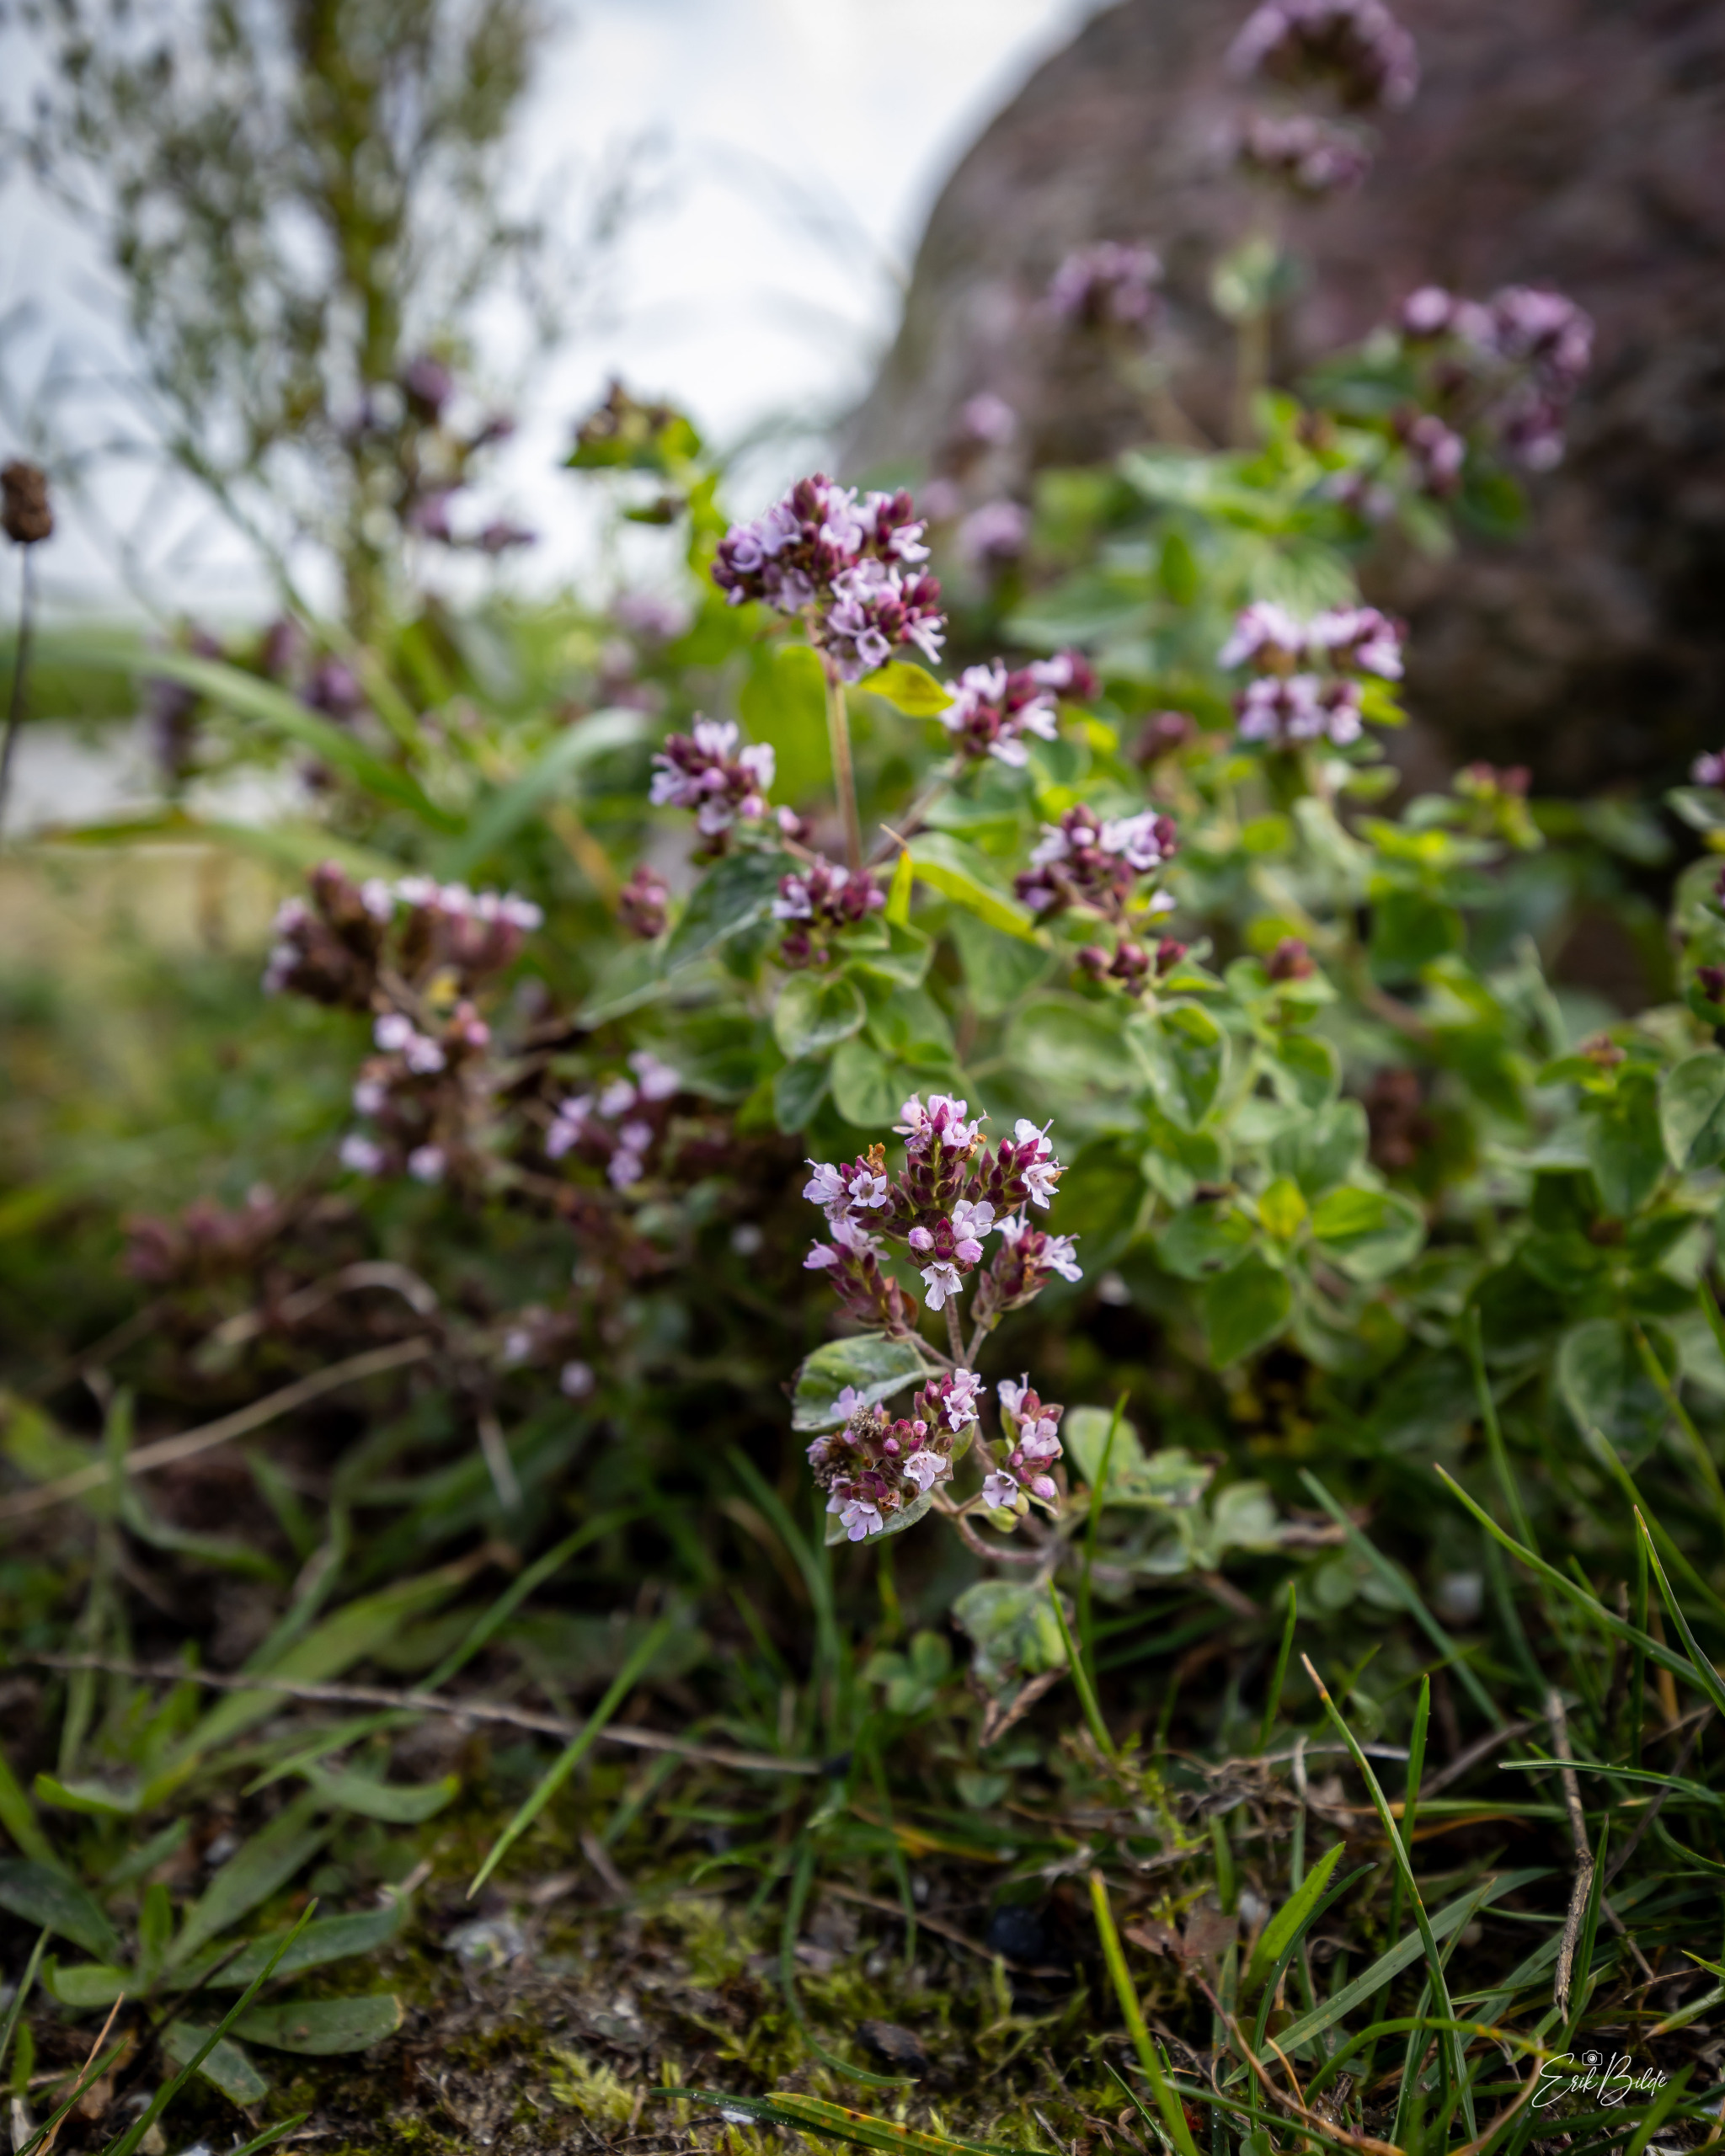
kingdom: Plantae
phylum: Tracheophyta
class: Magnoliopsida
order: Lamiales
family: Lamiaceae
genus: Origanum
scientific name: Origanum vulgare
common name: Merian
